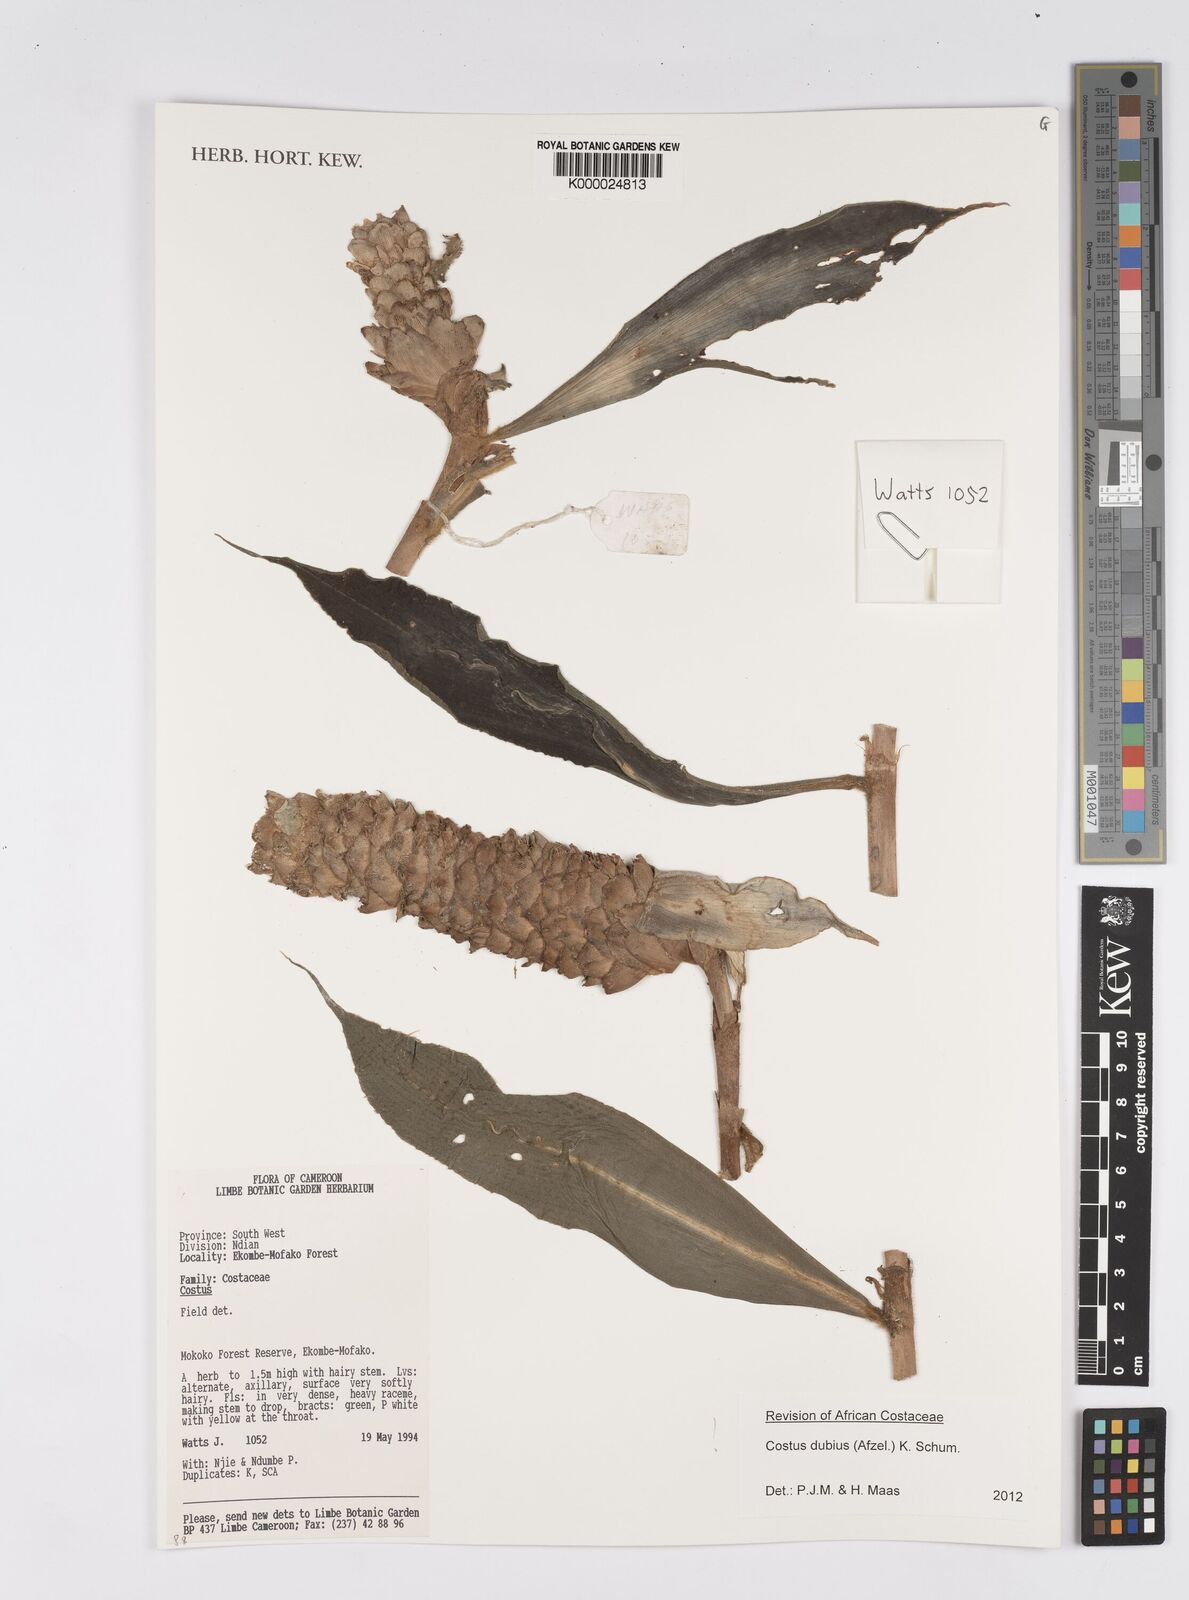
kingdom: Plantae
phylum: Tracheophyta
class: Liliopsida
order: Zingiberales
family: Costaceae
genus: Costus
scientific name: Costus dubius
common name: Costus
